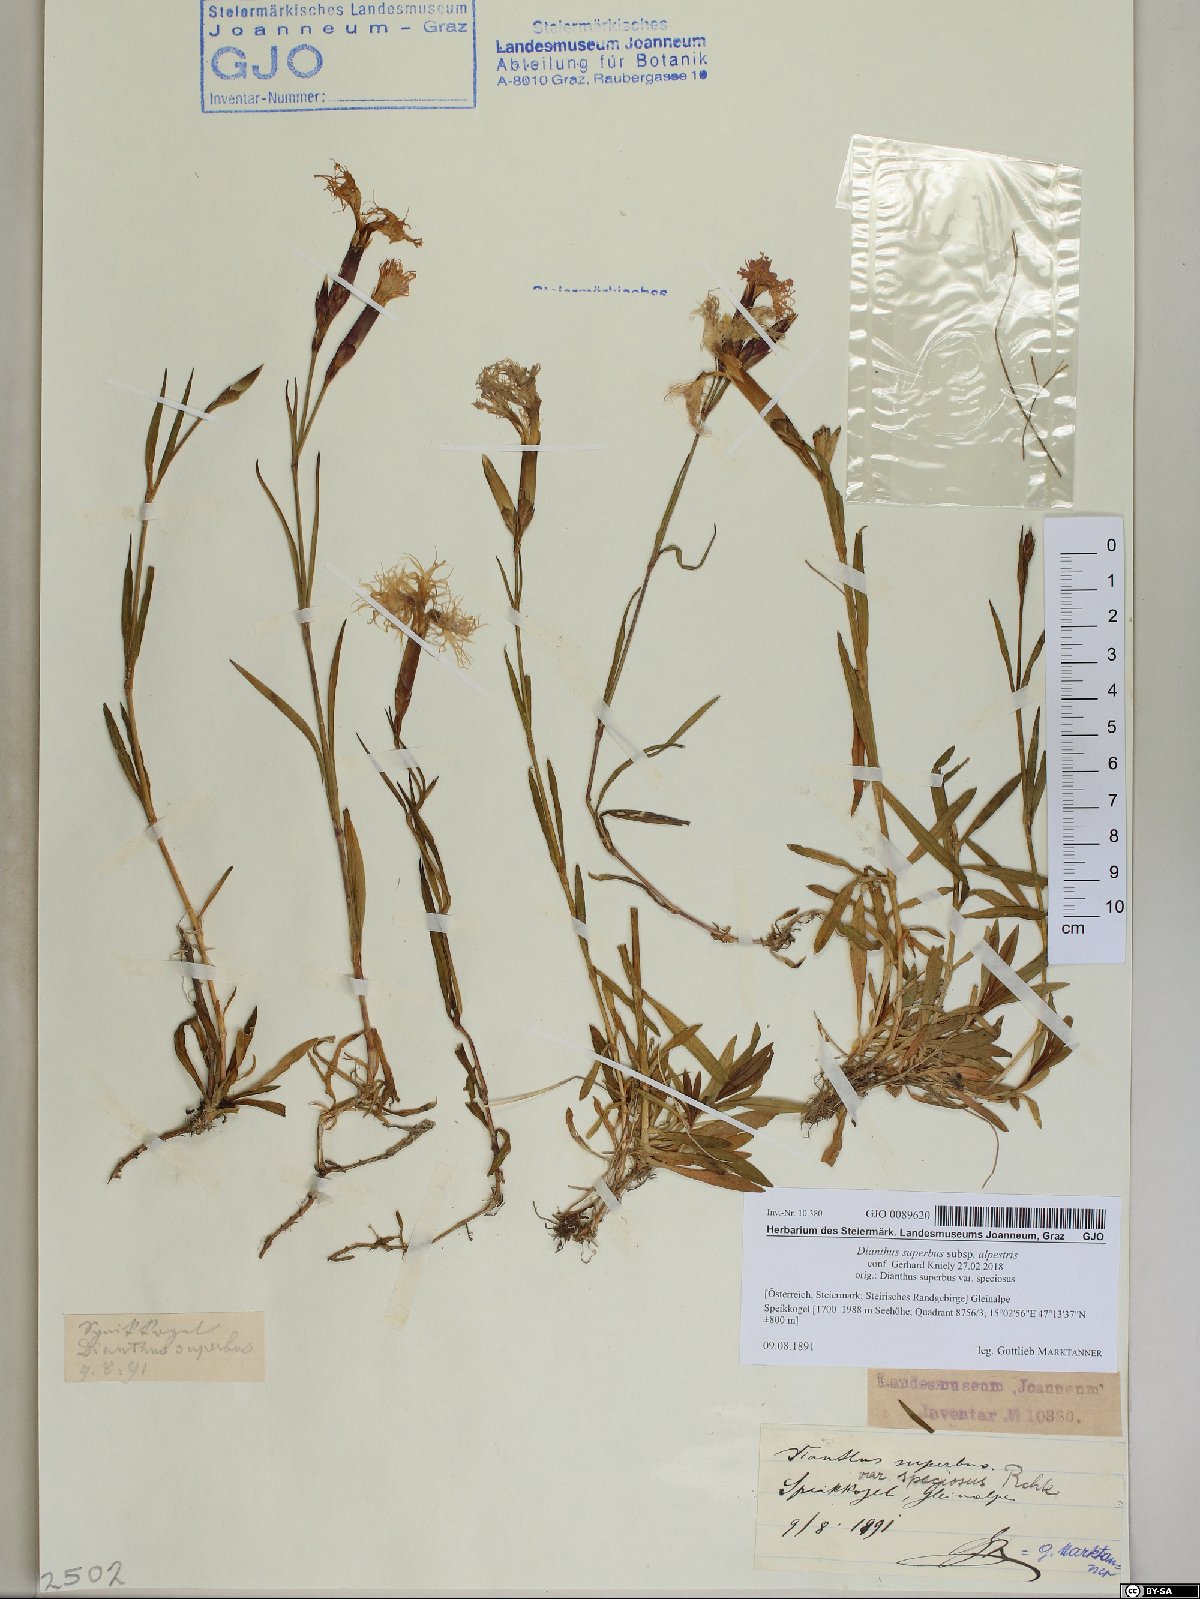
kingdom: Plantae
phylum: Tracheophyta
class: Magnoliopsida
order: Caryophyllales
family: Caryophyllaceae
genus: Dianthus
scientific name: Dianthus superbus
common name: Fringed pink
